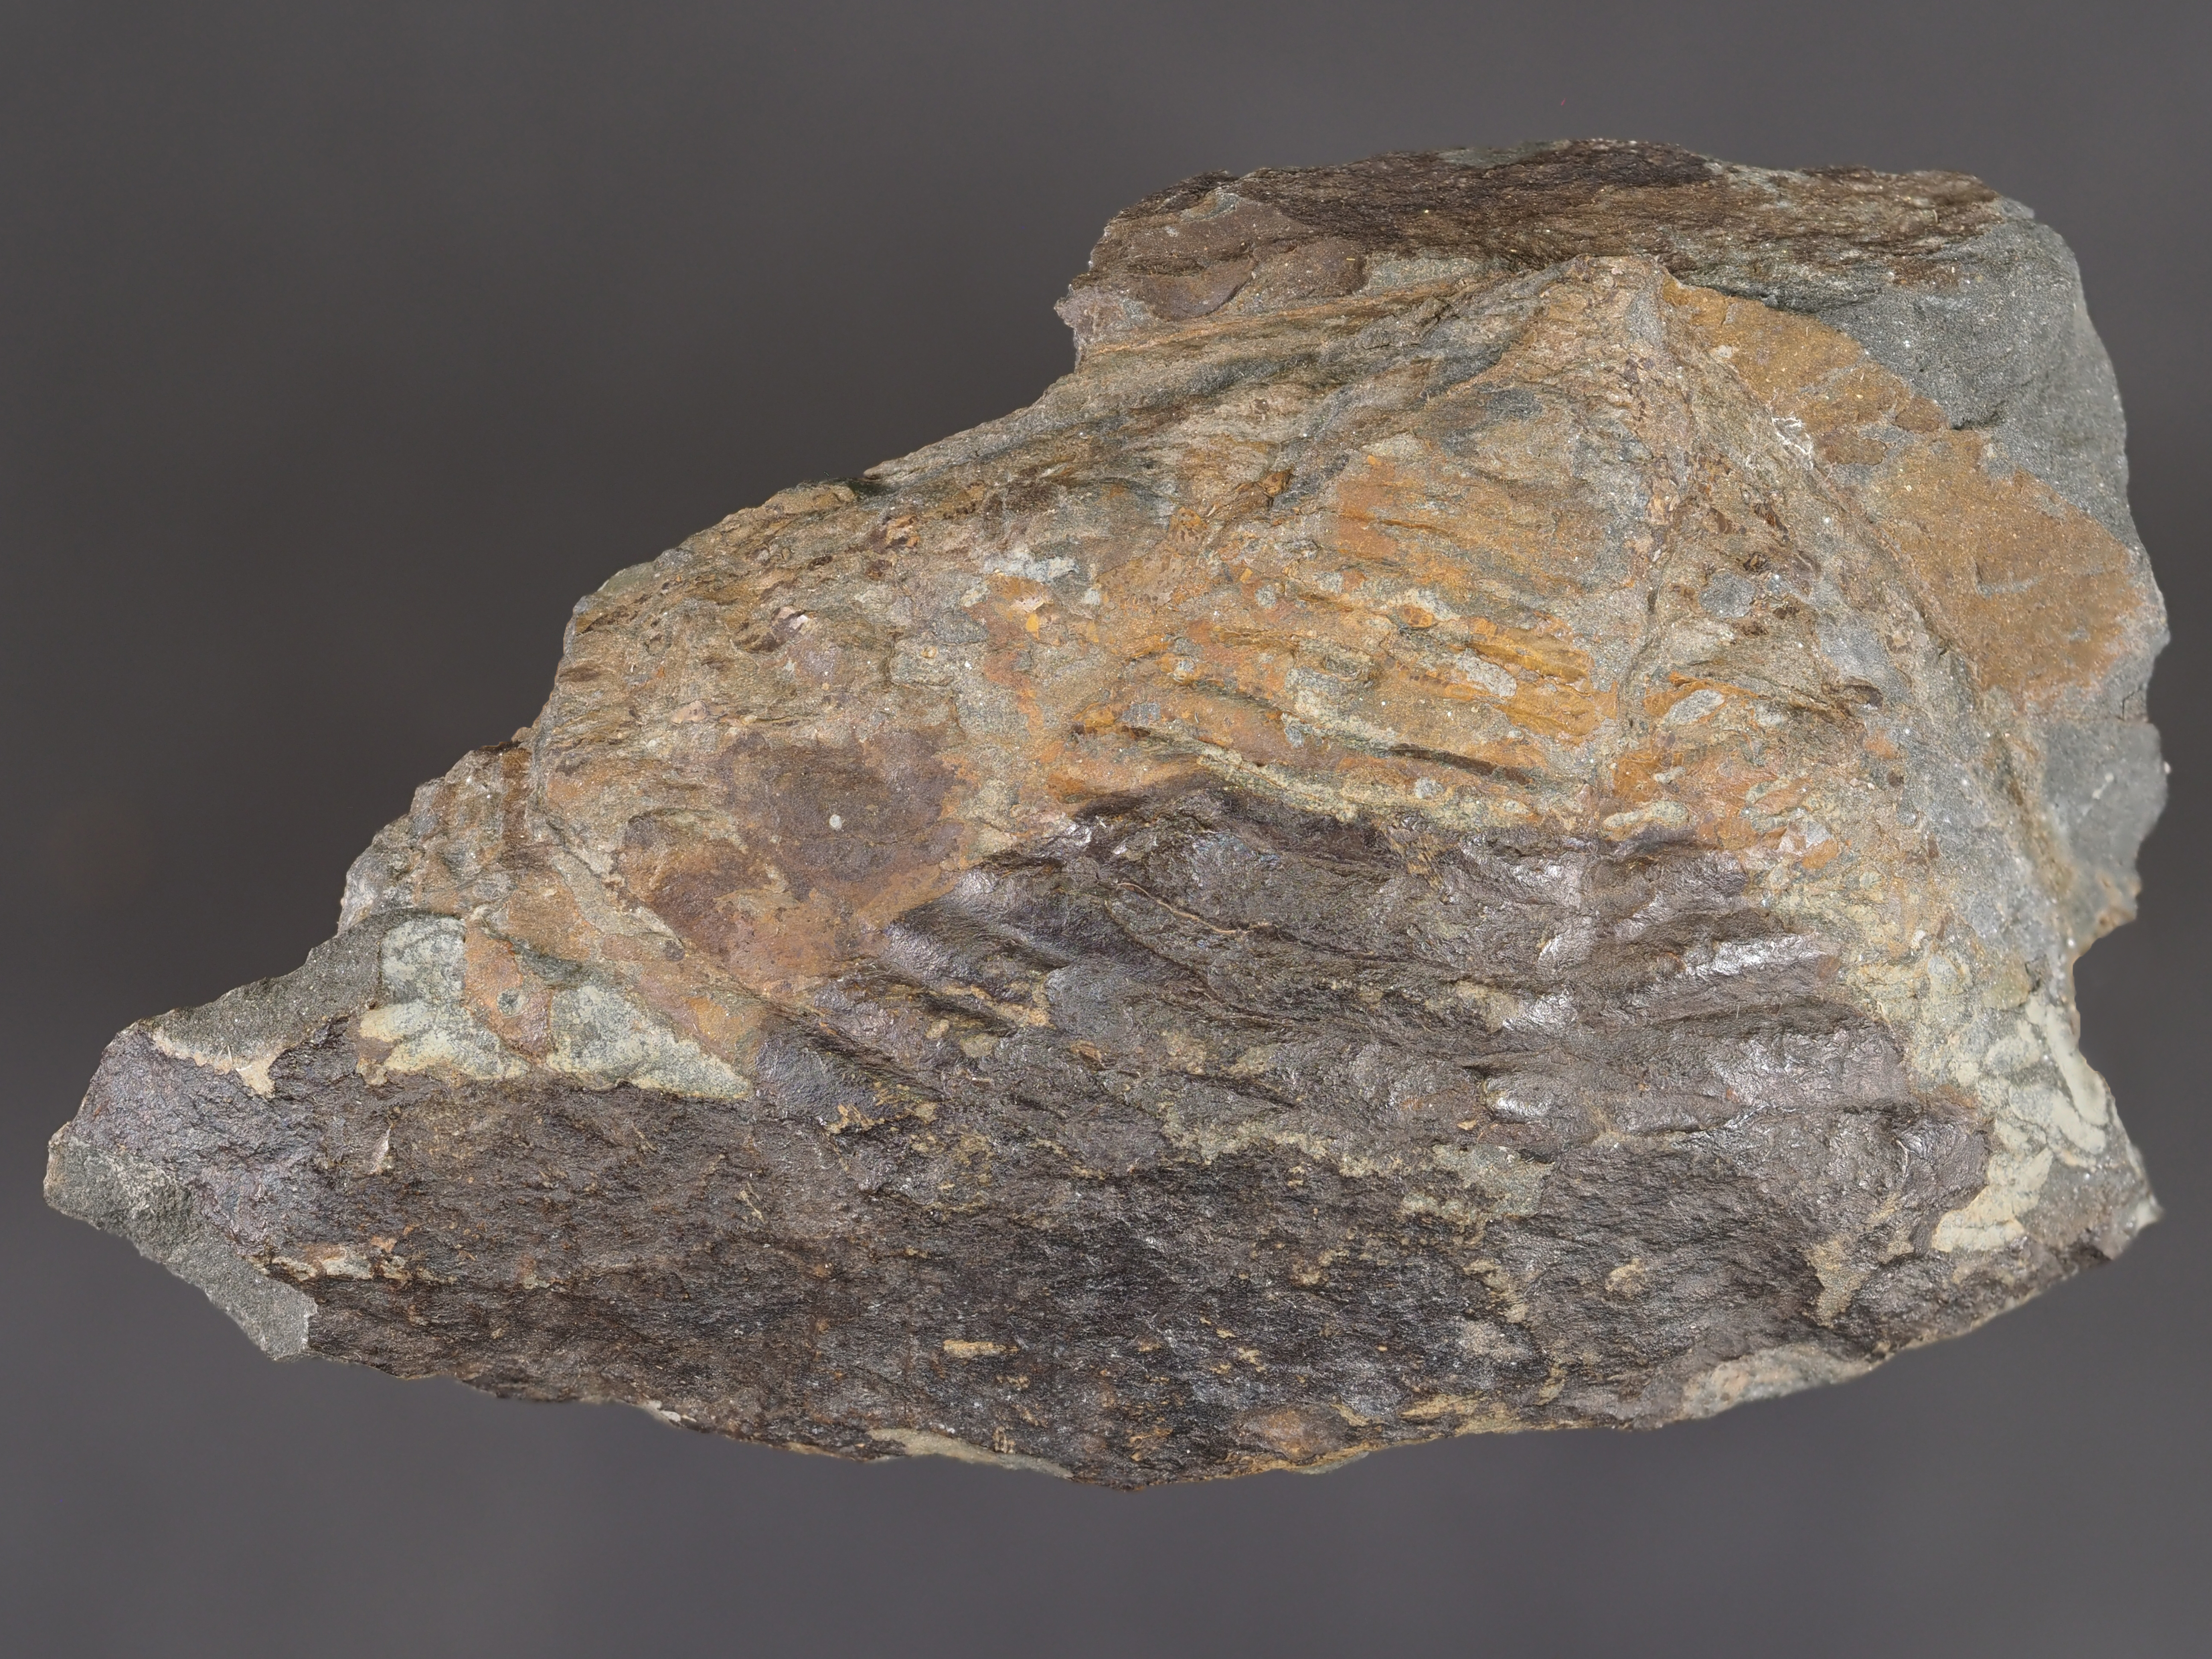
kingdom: Animalia
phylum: Arthropoda
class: Trilobita
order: Phacopida
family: Bathycheilidae
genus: Burmeisterella
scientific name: Burmeisterella
